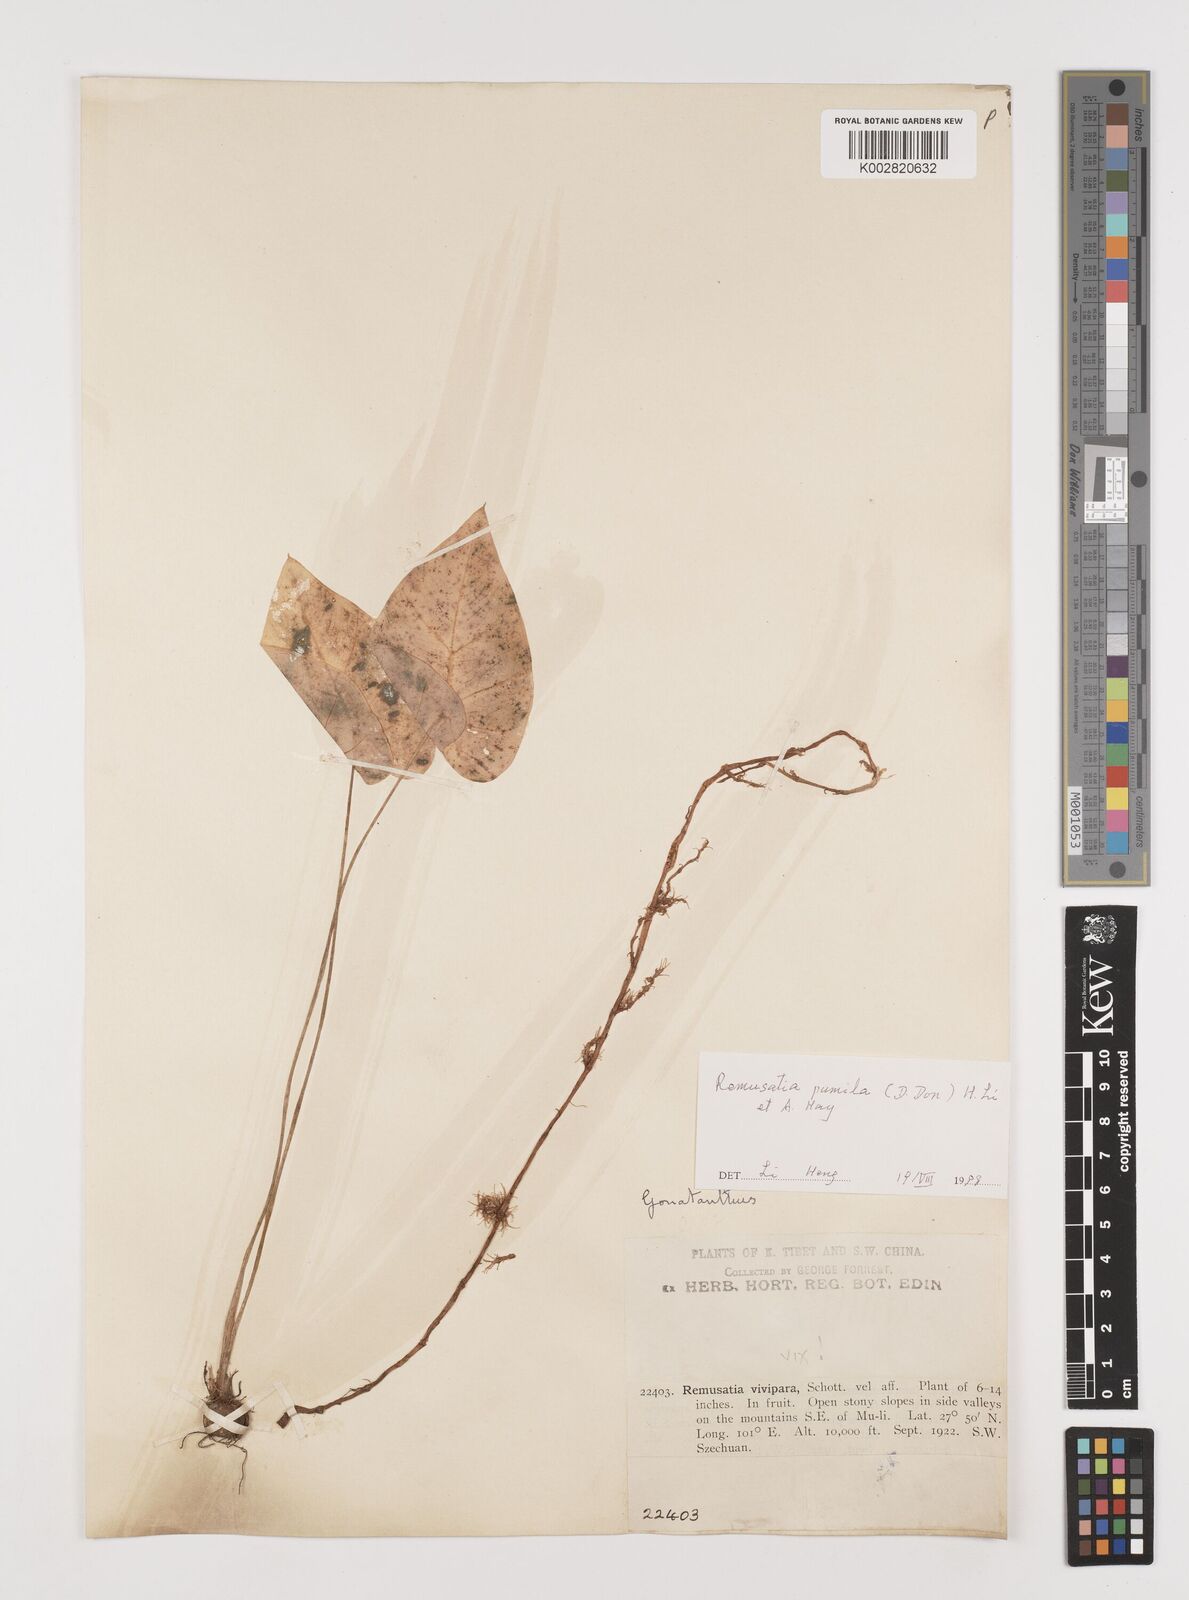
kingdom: Plantae
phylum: Tracheophyta
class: Liliopsida
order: Alismatales
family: Araceae
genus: Remusatia
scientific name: Remusatia pumila
